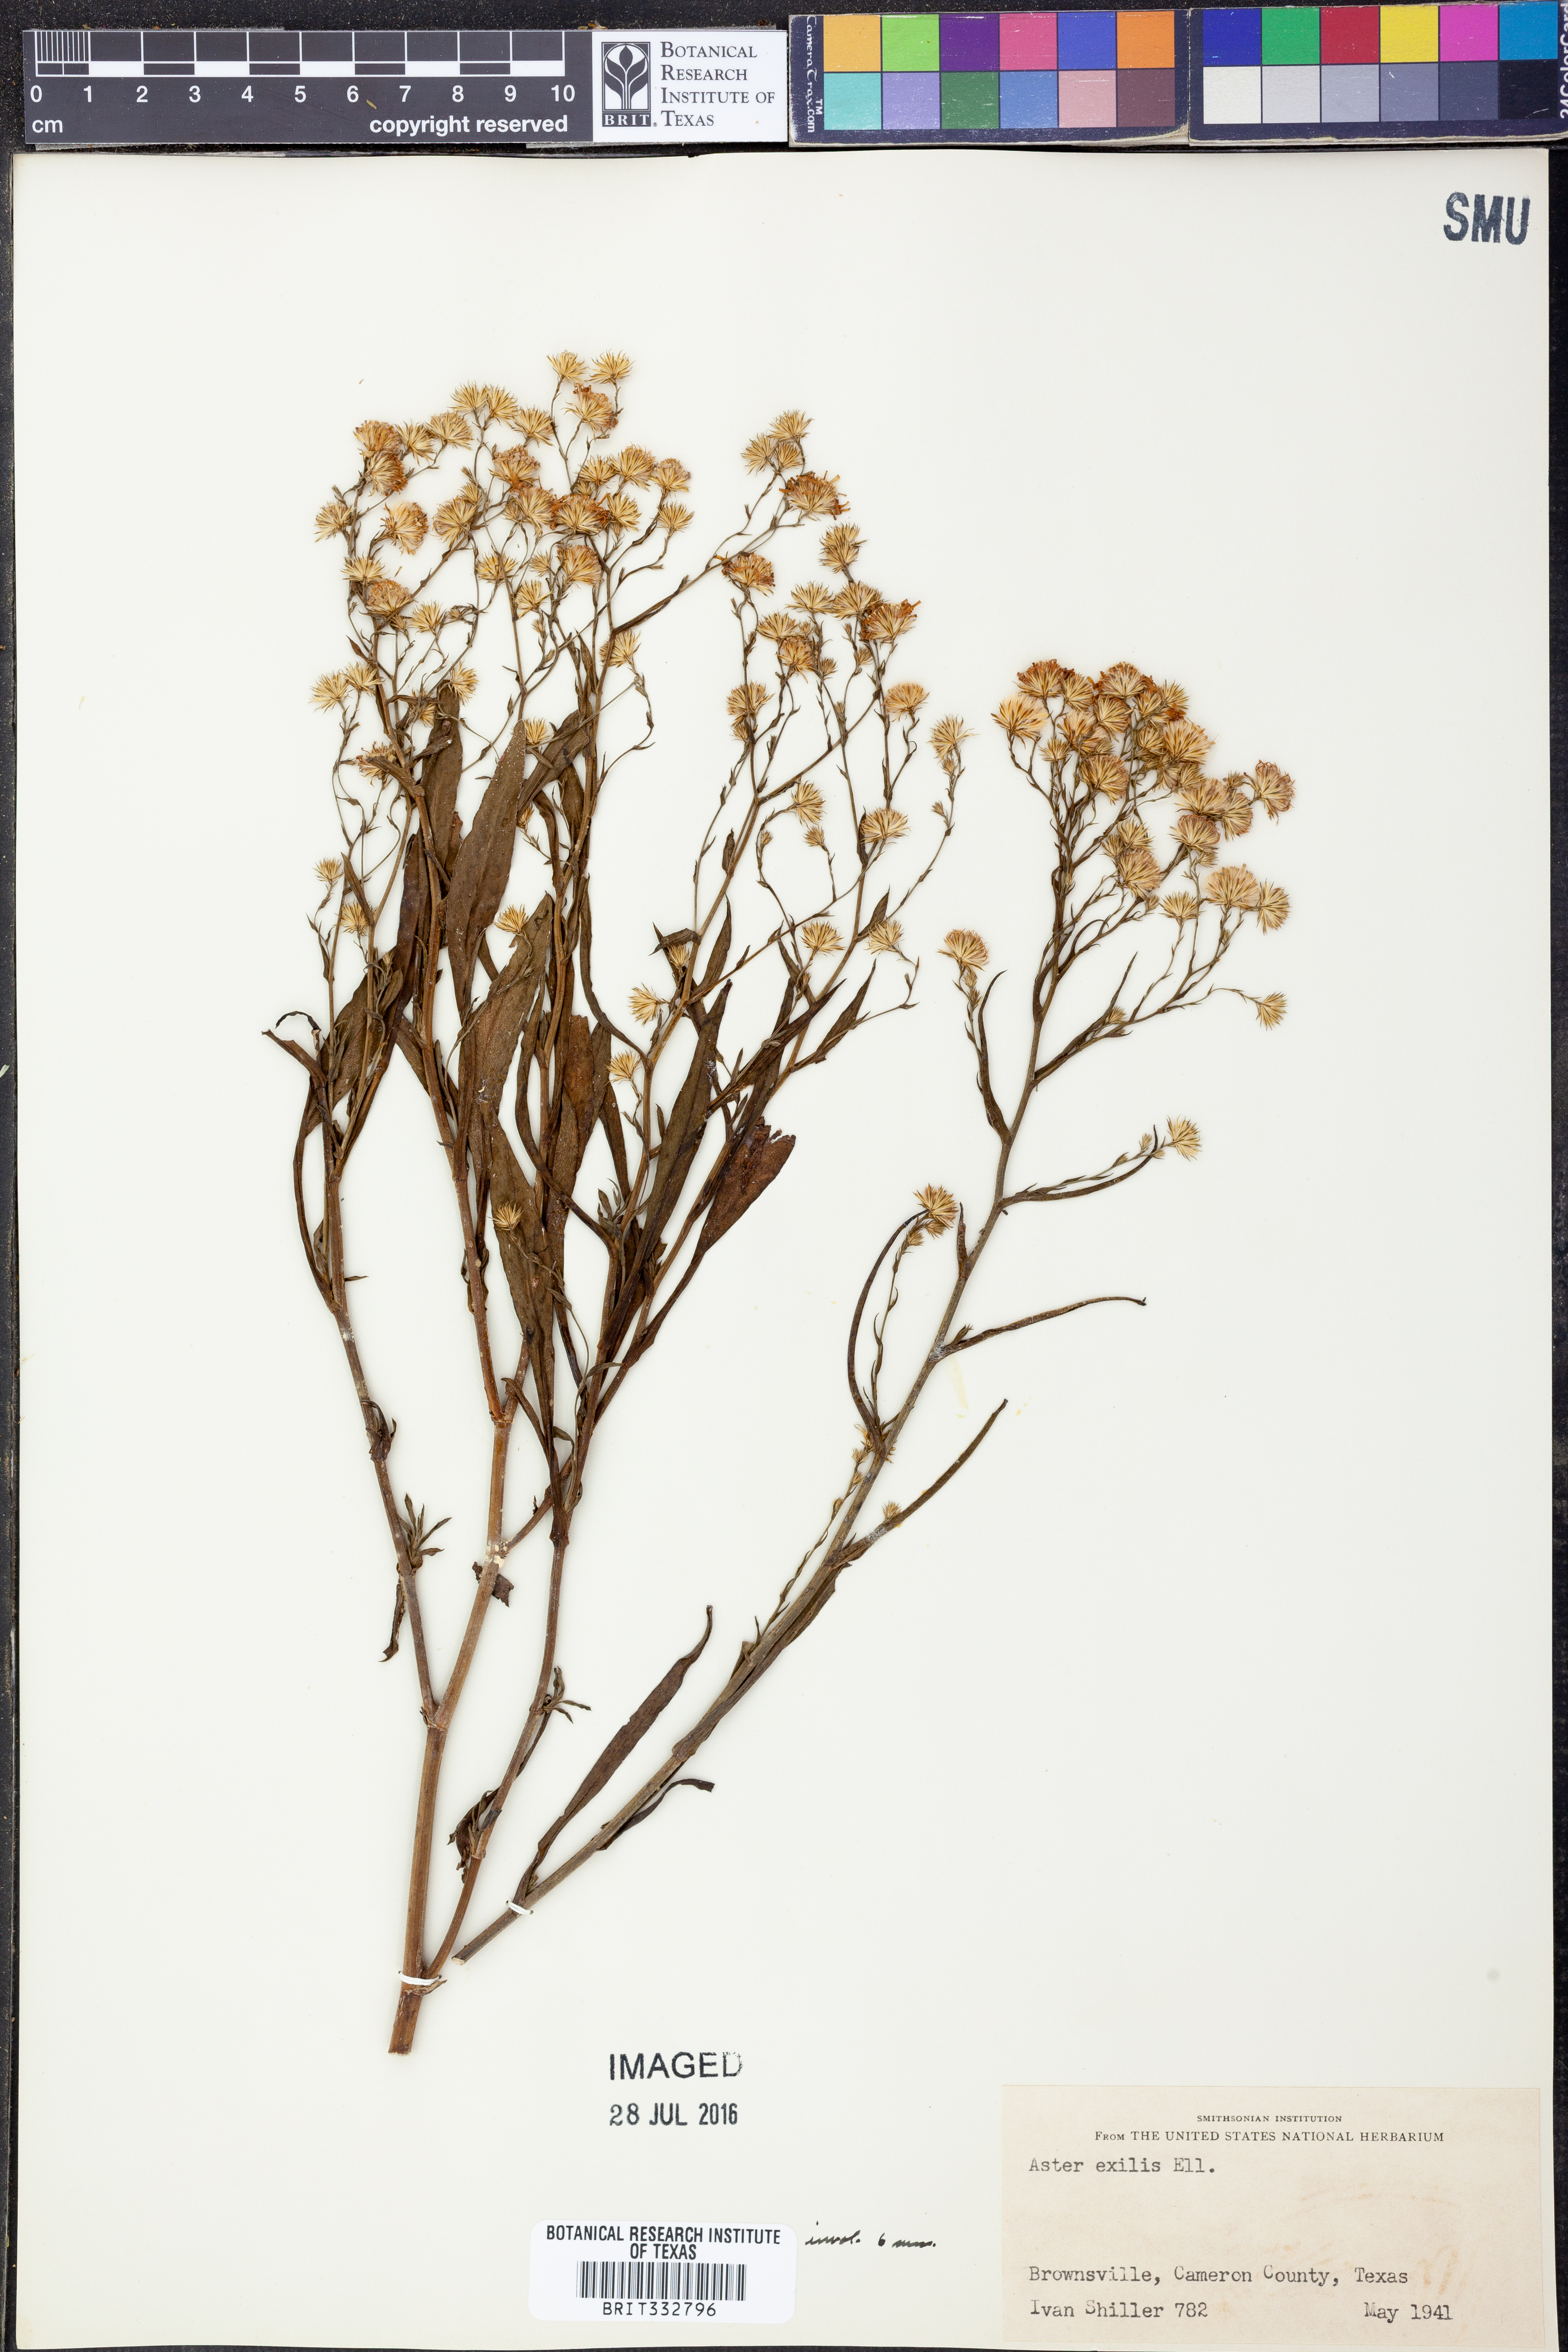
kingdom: Plantae
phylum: Tracheophyta
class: Magnoliopsida
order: Asterales
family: Asteraceae
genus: Symphyotrichum
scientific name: Symphyotrichum expansum
